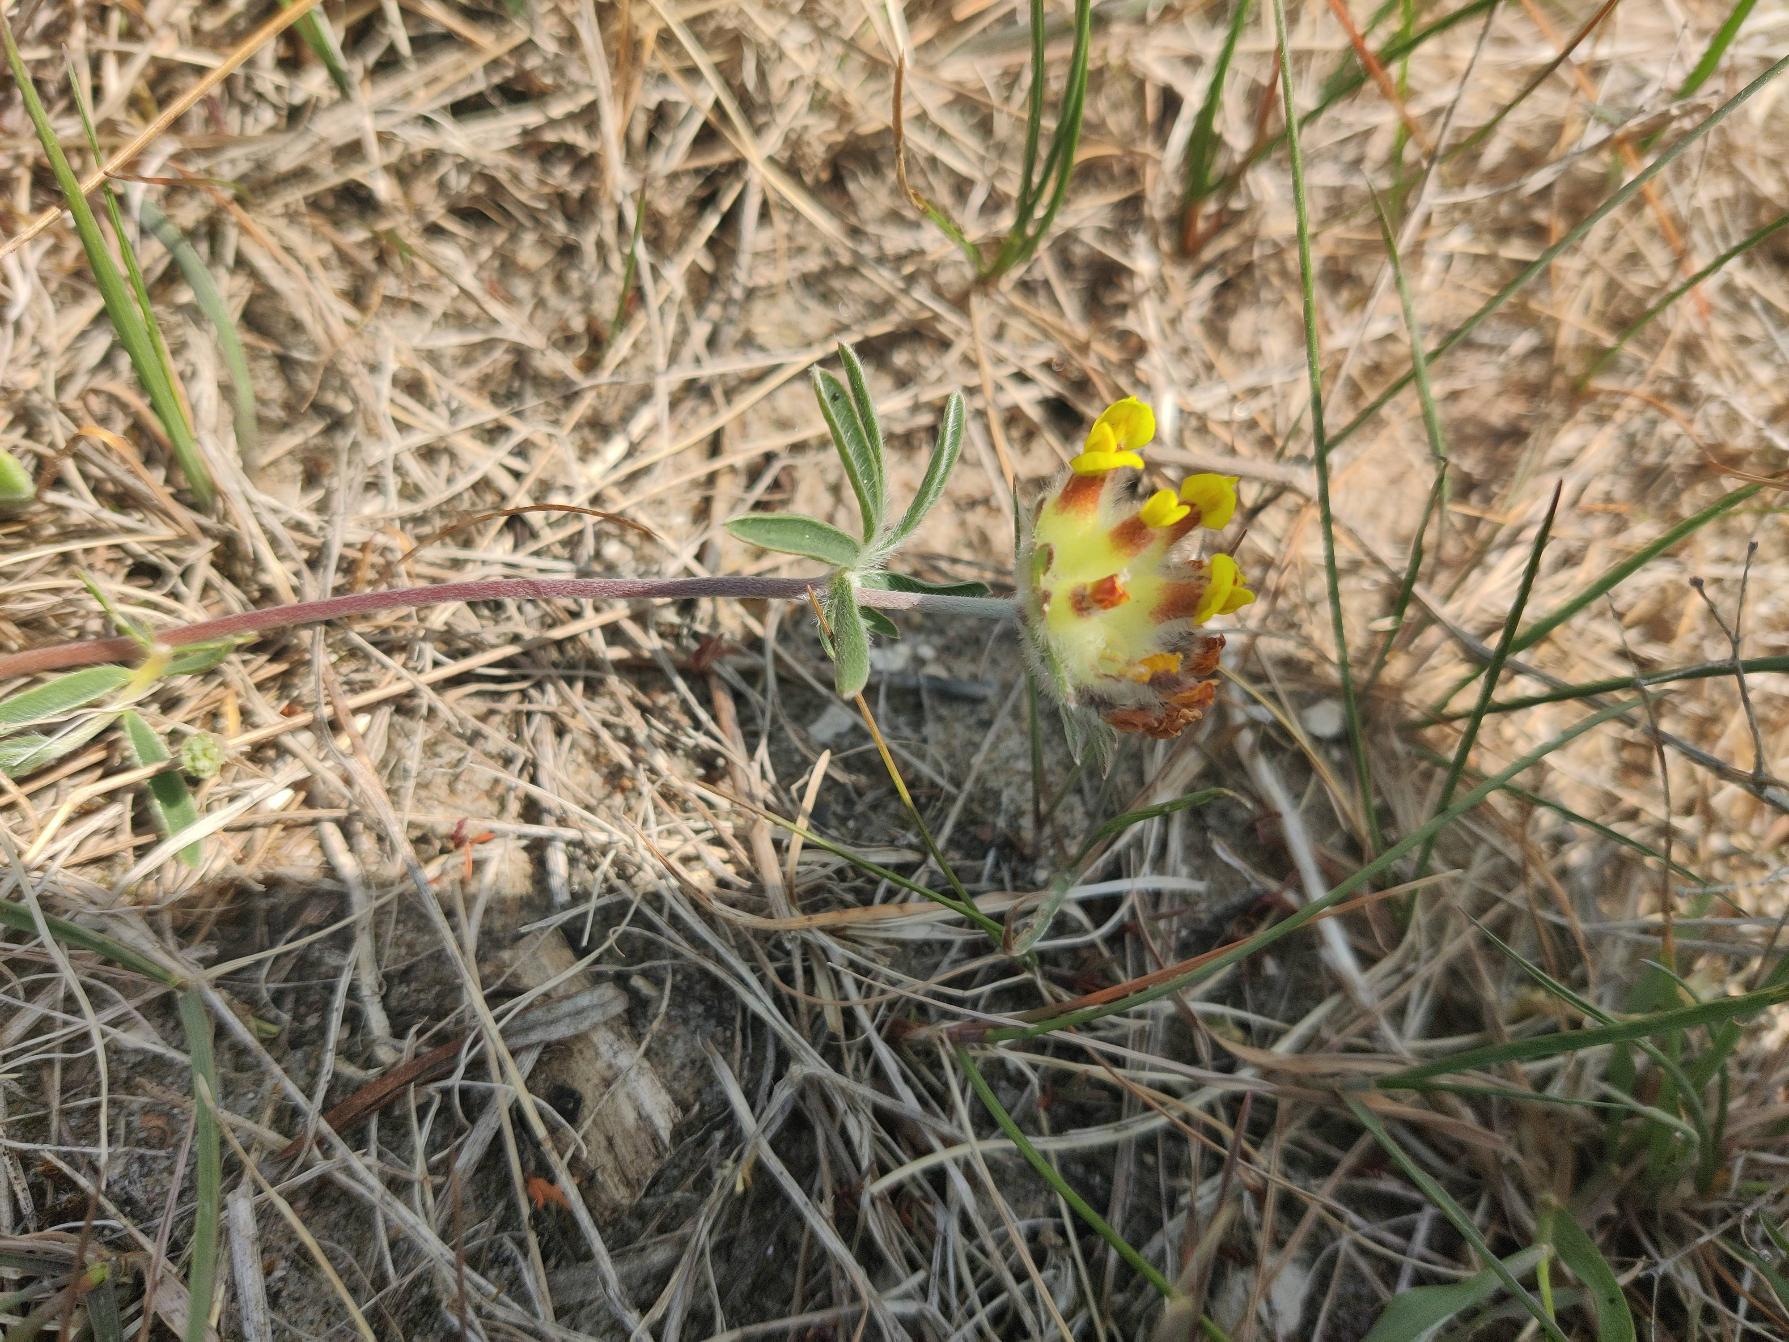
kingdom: Plantae
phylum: Tracheophyta
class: Magnoliopsida
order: Fabales
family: Fabaceae
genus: Anthyllis
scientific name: Anthyllis vulneraria
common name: Rundbælg
